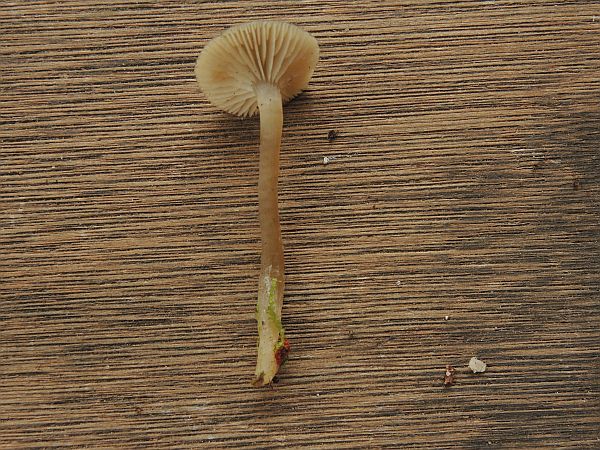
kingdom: Fungi
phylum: Basidiomycota
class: Agaricomycetes
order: Agaricales
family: Tricholomataceae
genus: Omphaliaster
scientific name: Omphaliaster asterosporus
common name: narrehat
